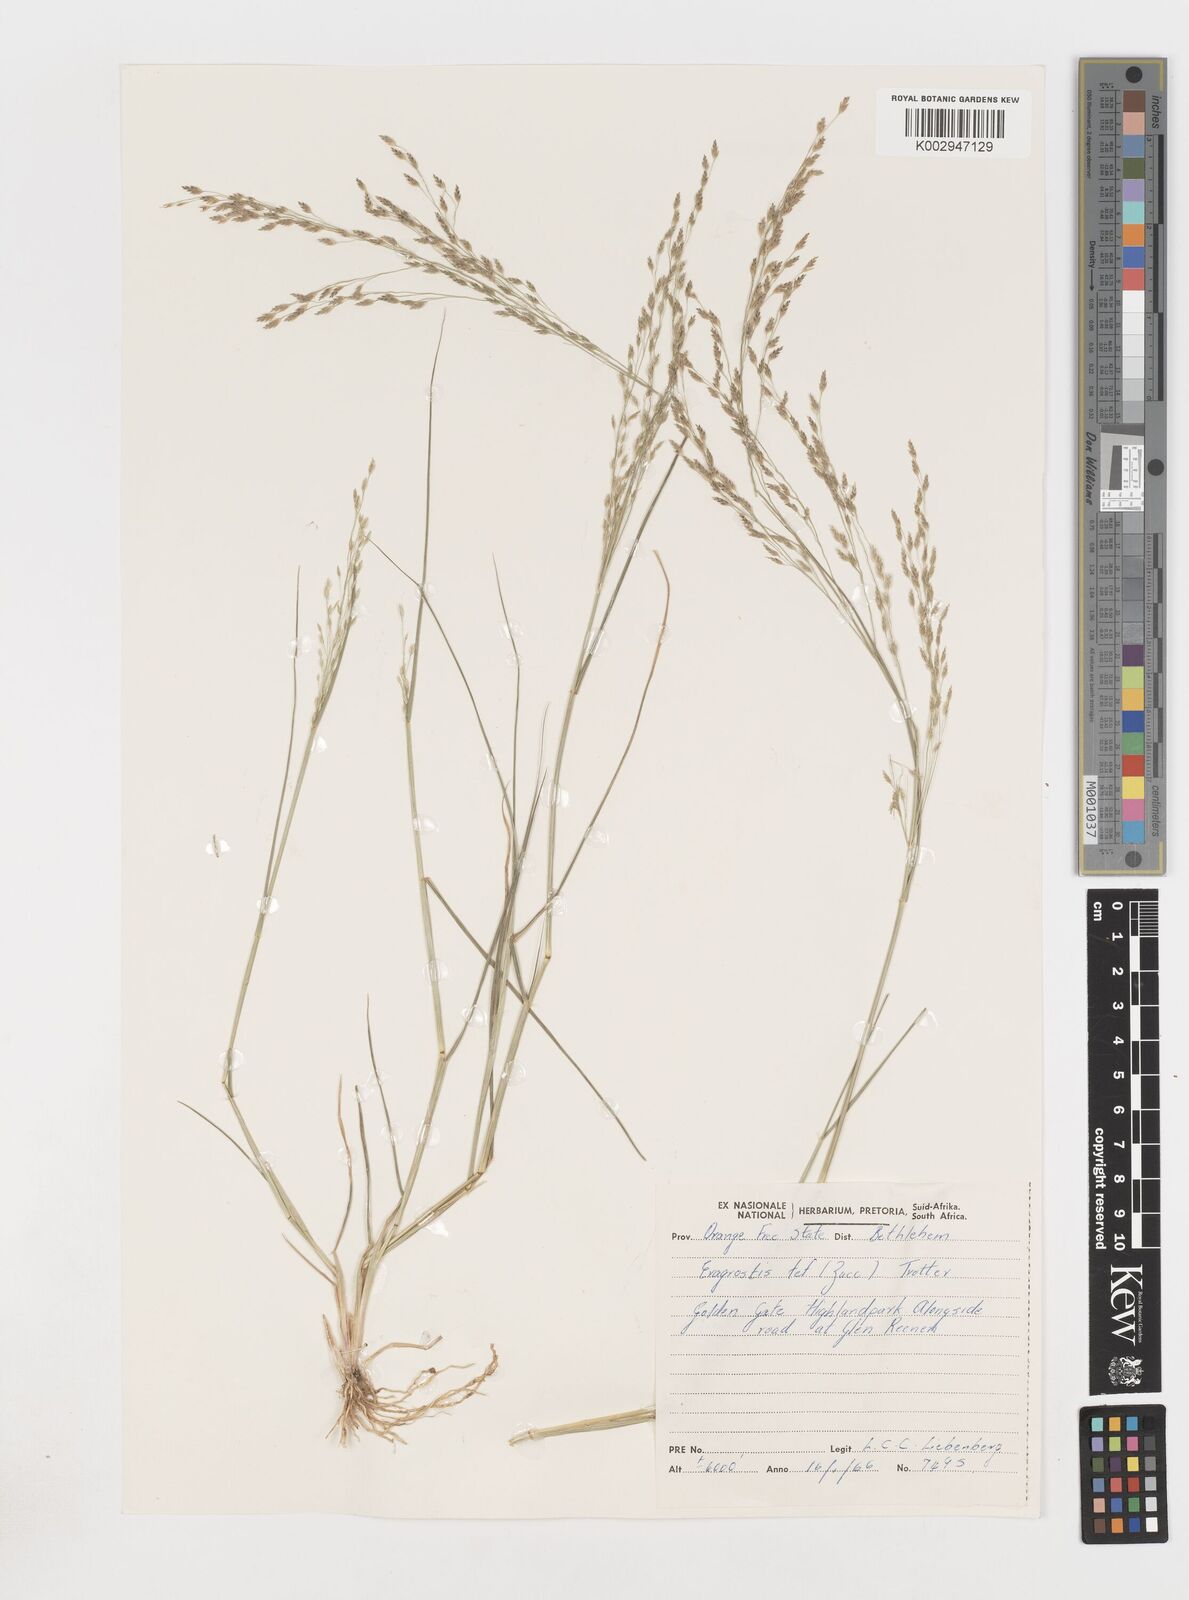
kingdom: Plantae
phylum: Tracheophyta
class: Liliopsida
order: Poales
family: Poaceae
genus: Eragrostis
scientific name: Eragrostis tef
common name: Teff
